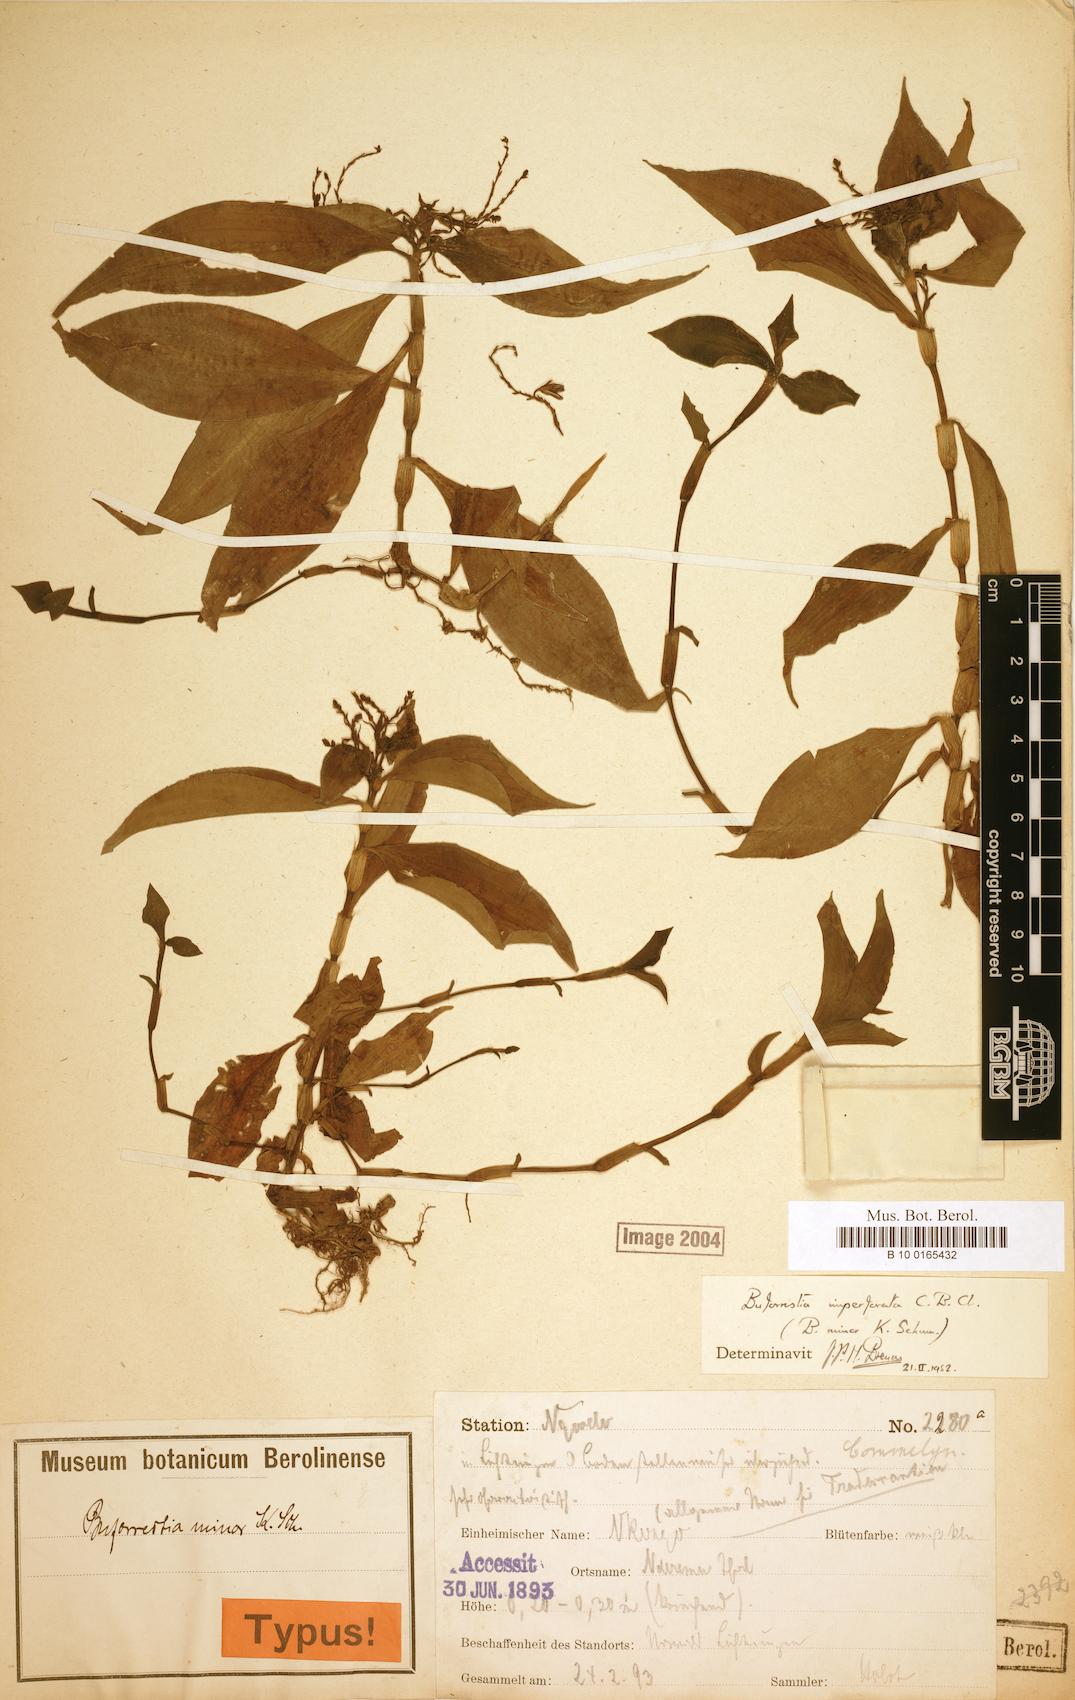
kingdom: Plantae
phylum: Tracheophyta
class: Liliopsida
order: Commelinales
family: Commelinaceae
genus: Stanfieldiella
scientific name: Stanfieldiella imperforata
